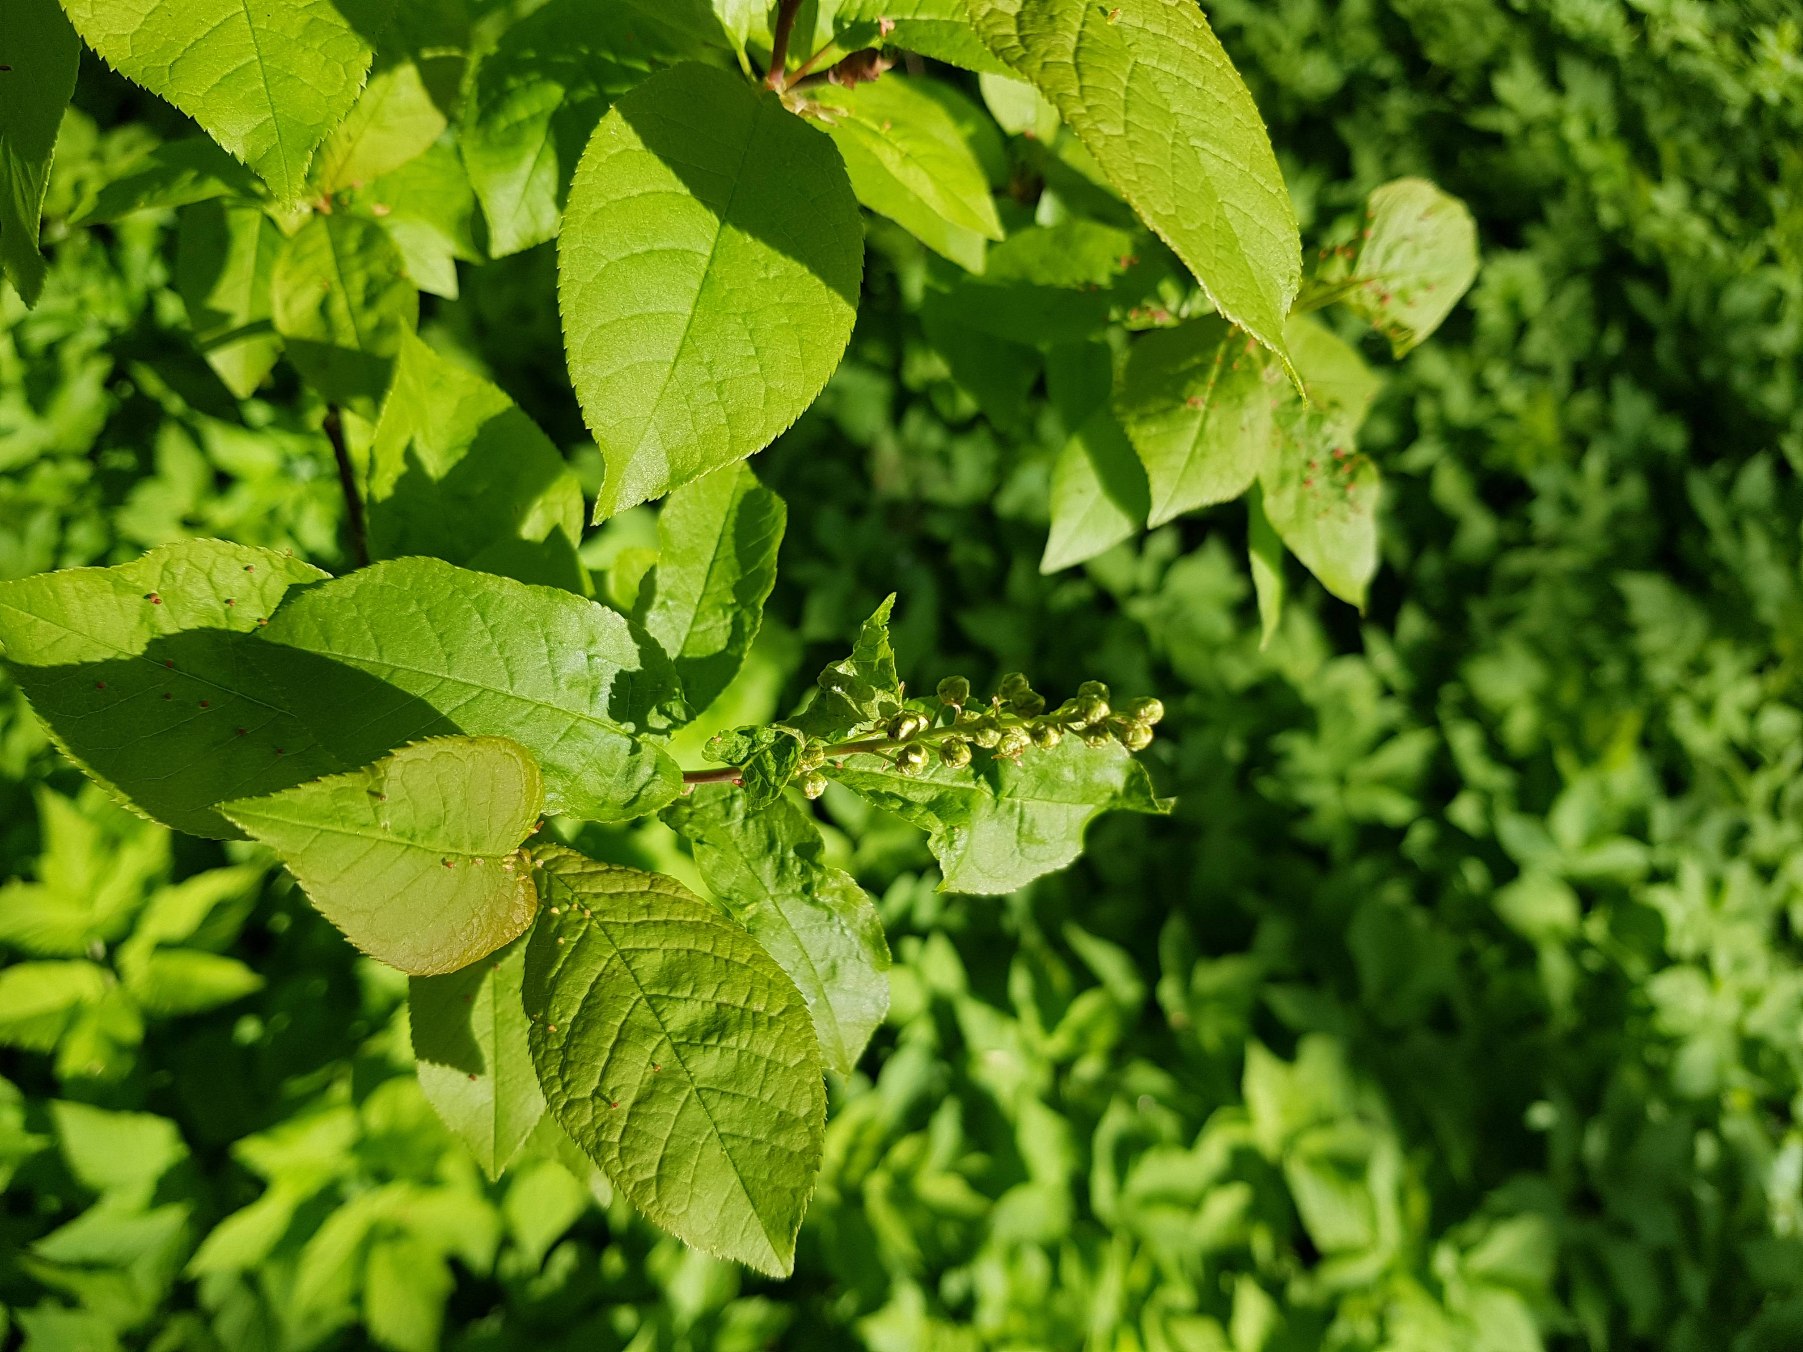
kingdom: Plantae
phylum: Tracheophyta
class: Magnoliopsida
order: Rosales
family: Rosaceae
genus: Prunus
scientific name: Prunus padus
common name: Almindelig hæg
